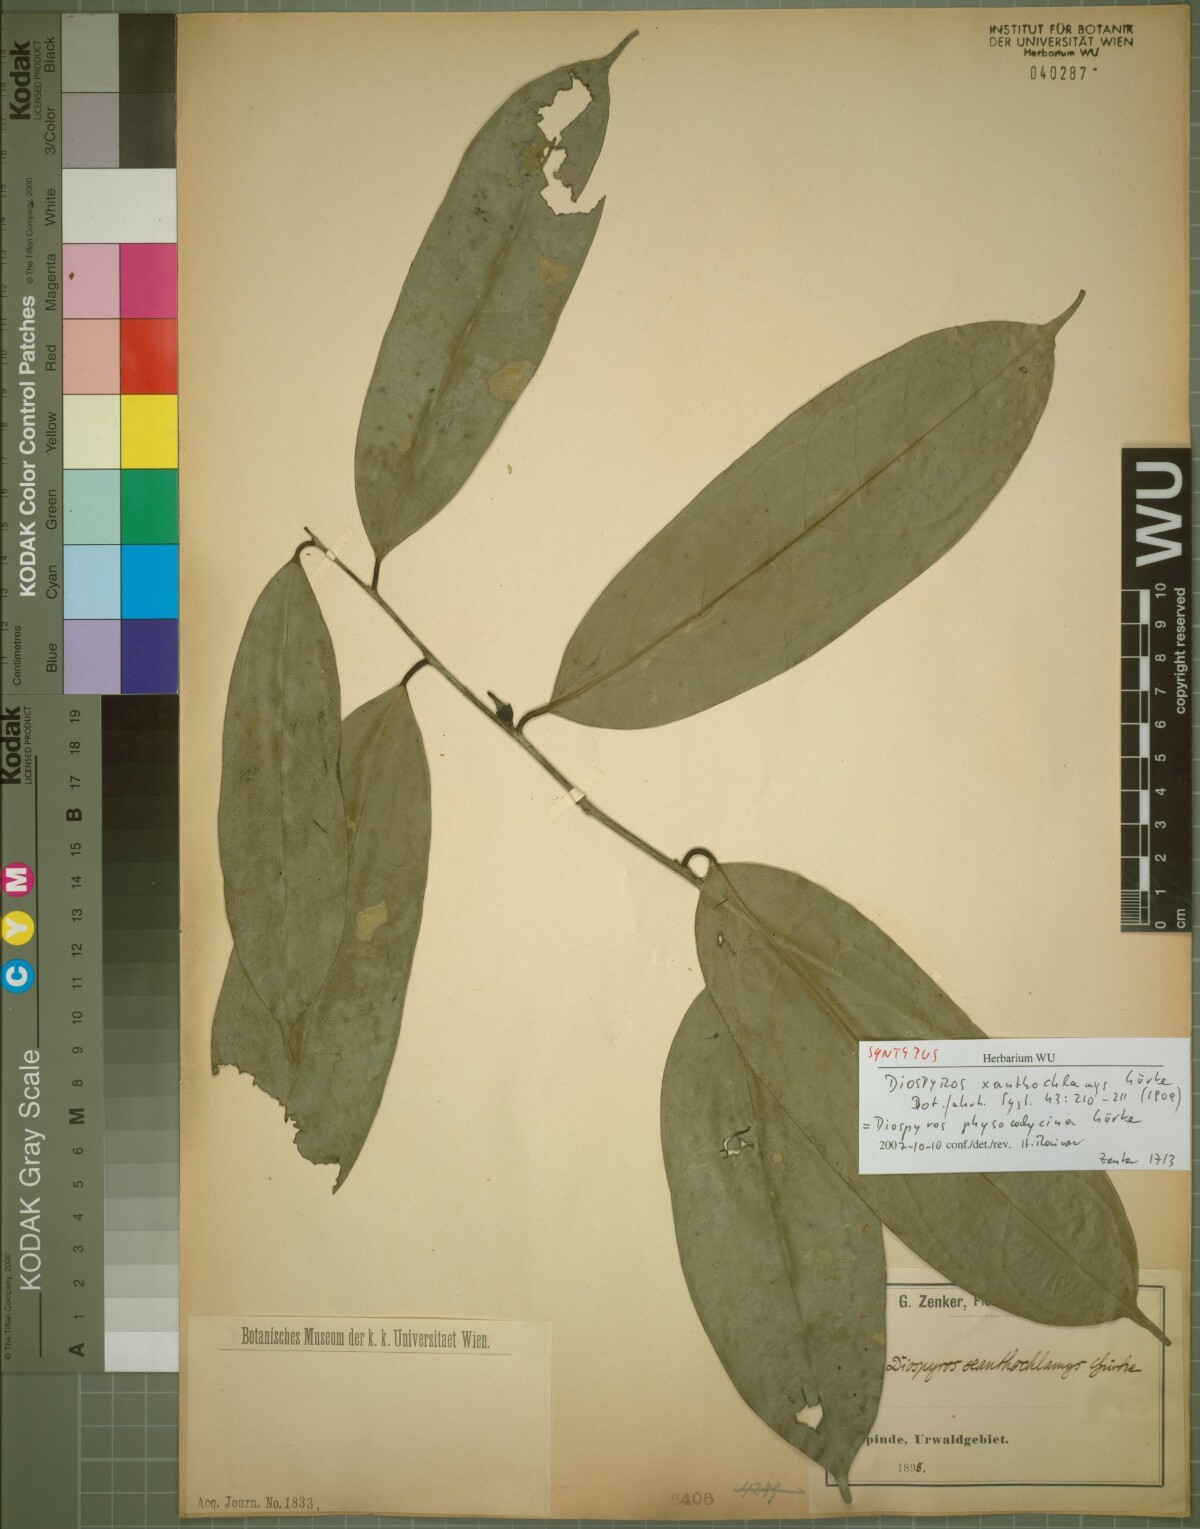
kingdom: Plantae
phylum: Tracheophyta
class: Magnoliopsida
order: Ericales
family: Ebenaceae
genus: Diospyros
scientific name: Diospyros physocalycina
